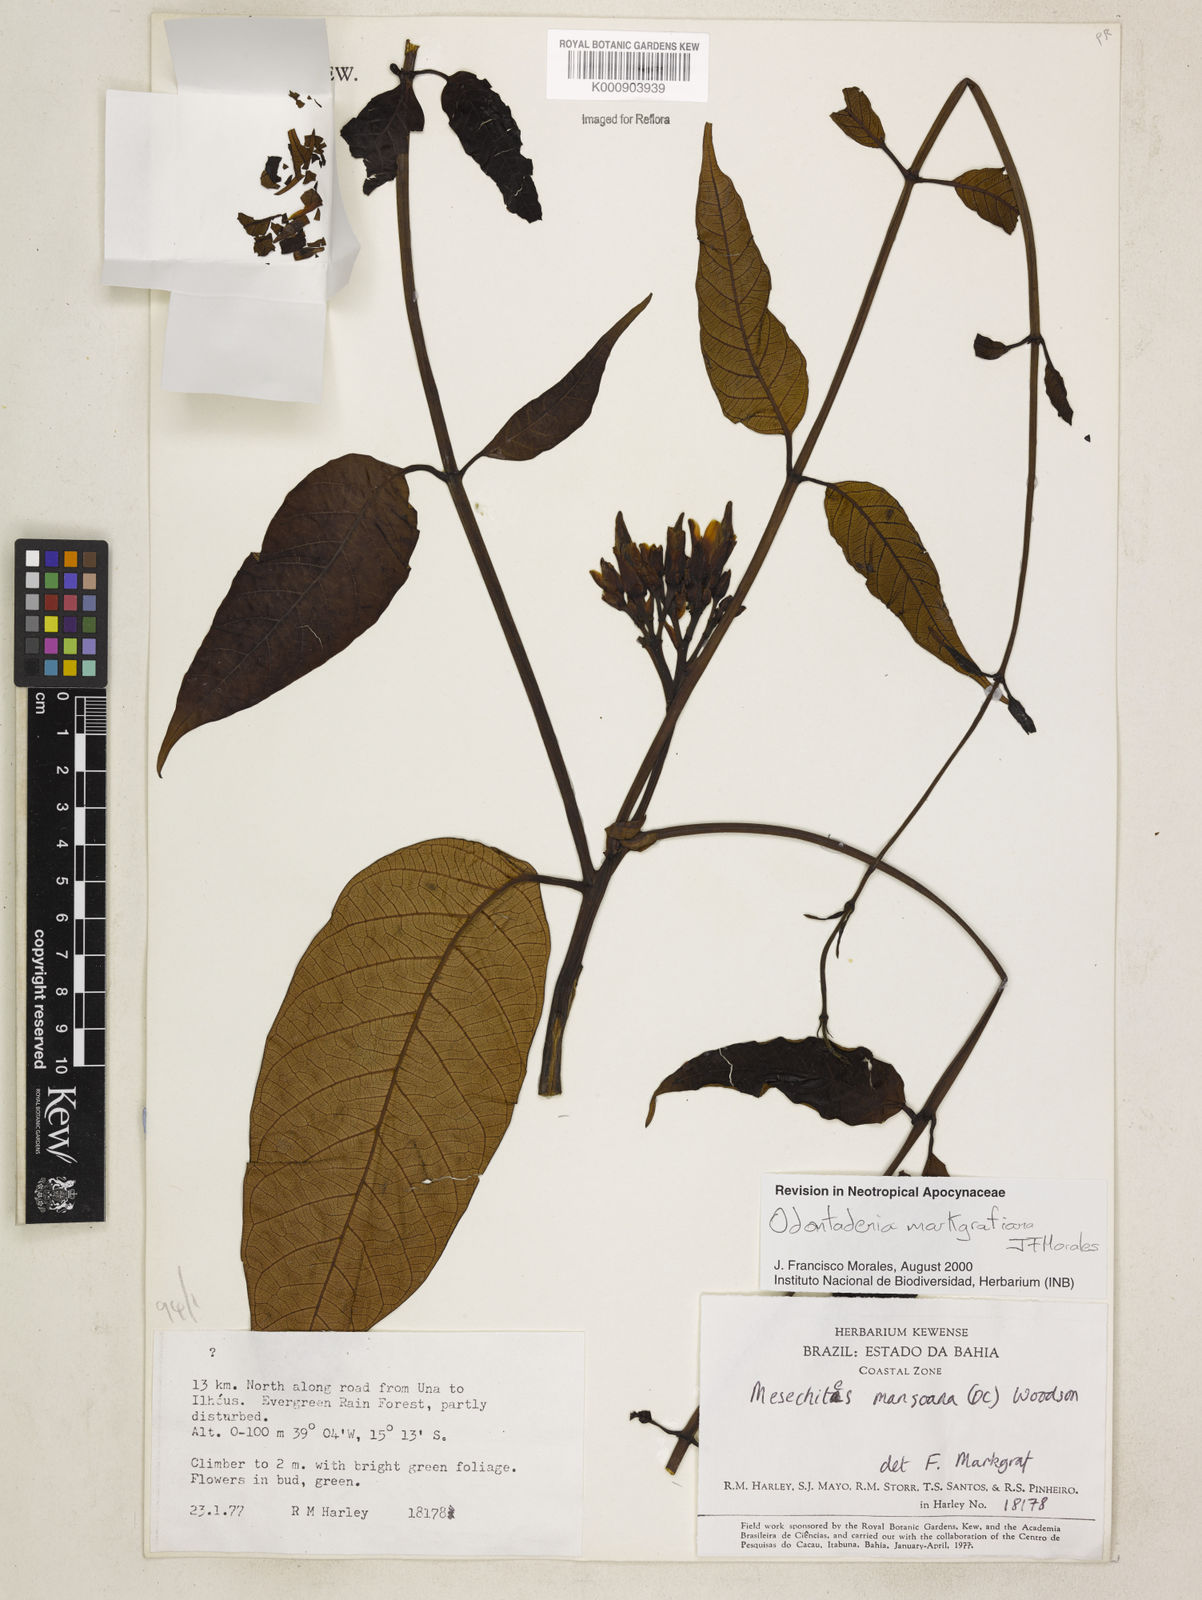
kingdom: Plantae
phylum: Tracheophyta
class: Magnoliopsida
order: Gentianales
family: Apocynaceae
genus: Odontadenia
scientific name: Odontadenia markgrafiana
